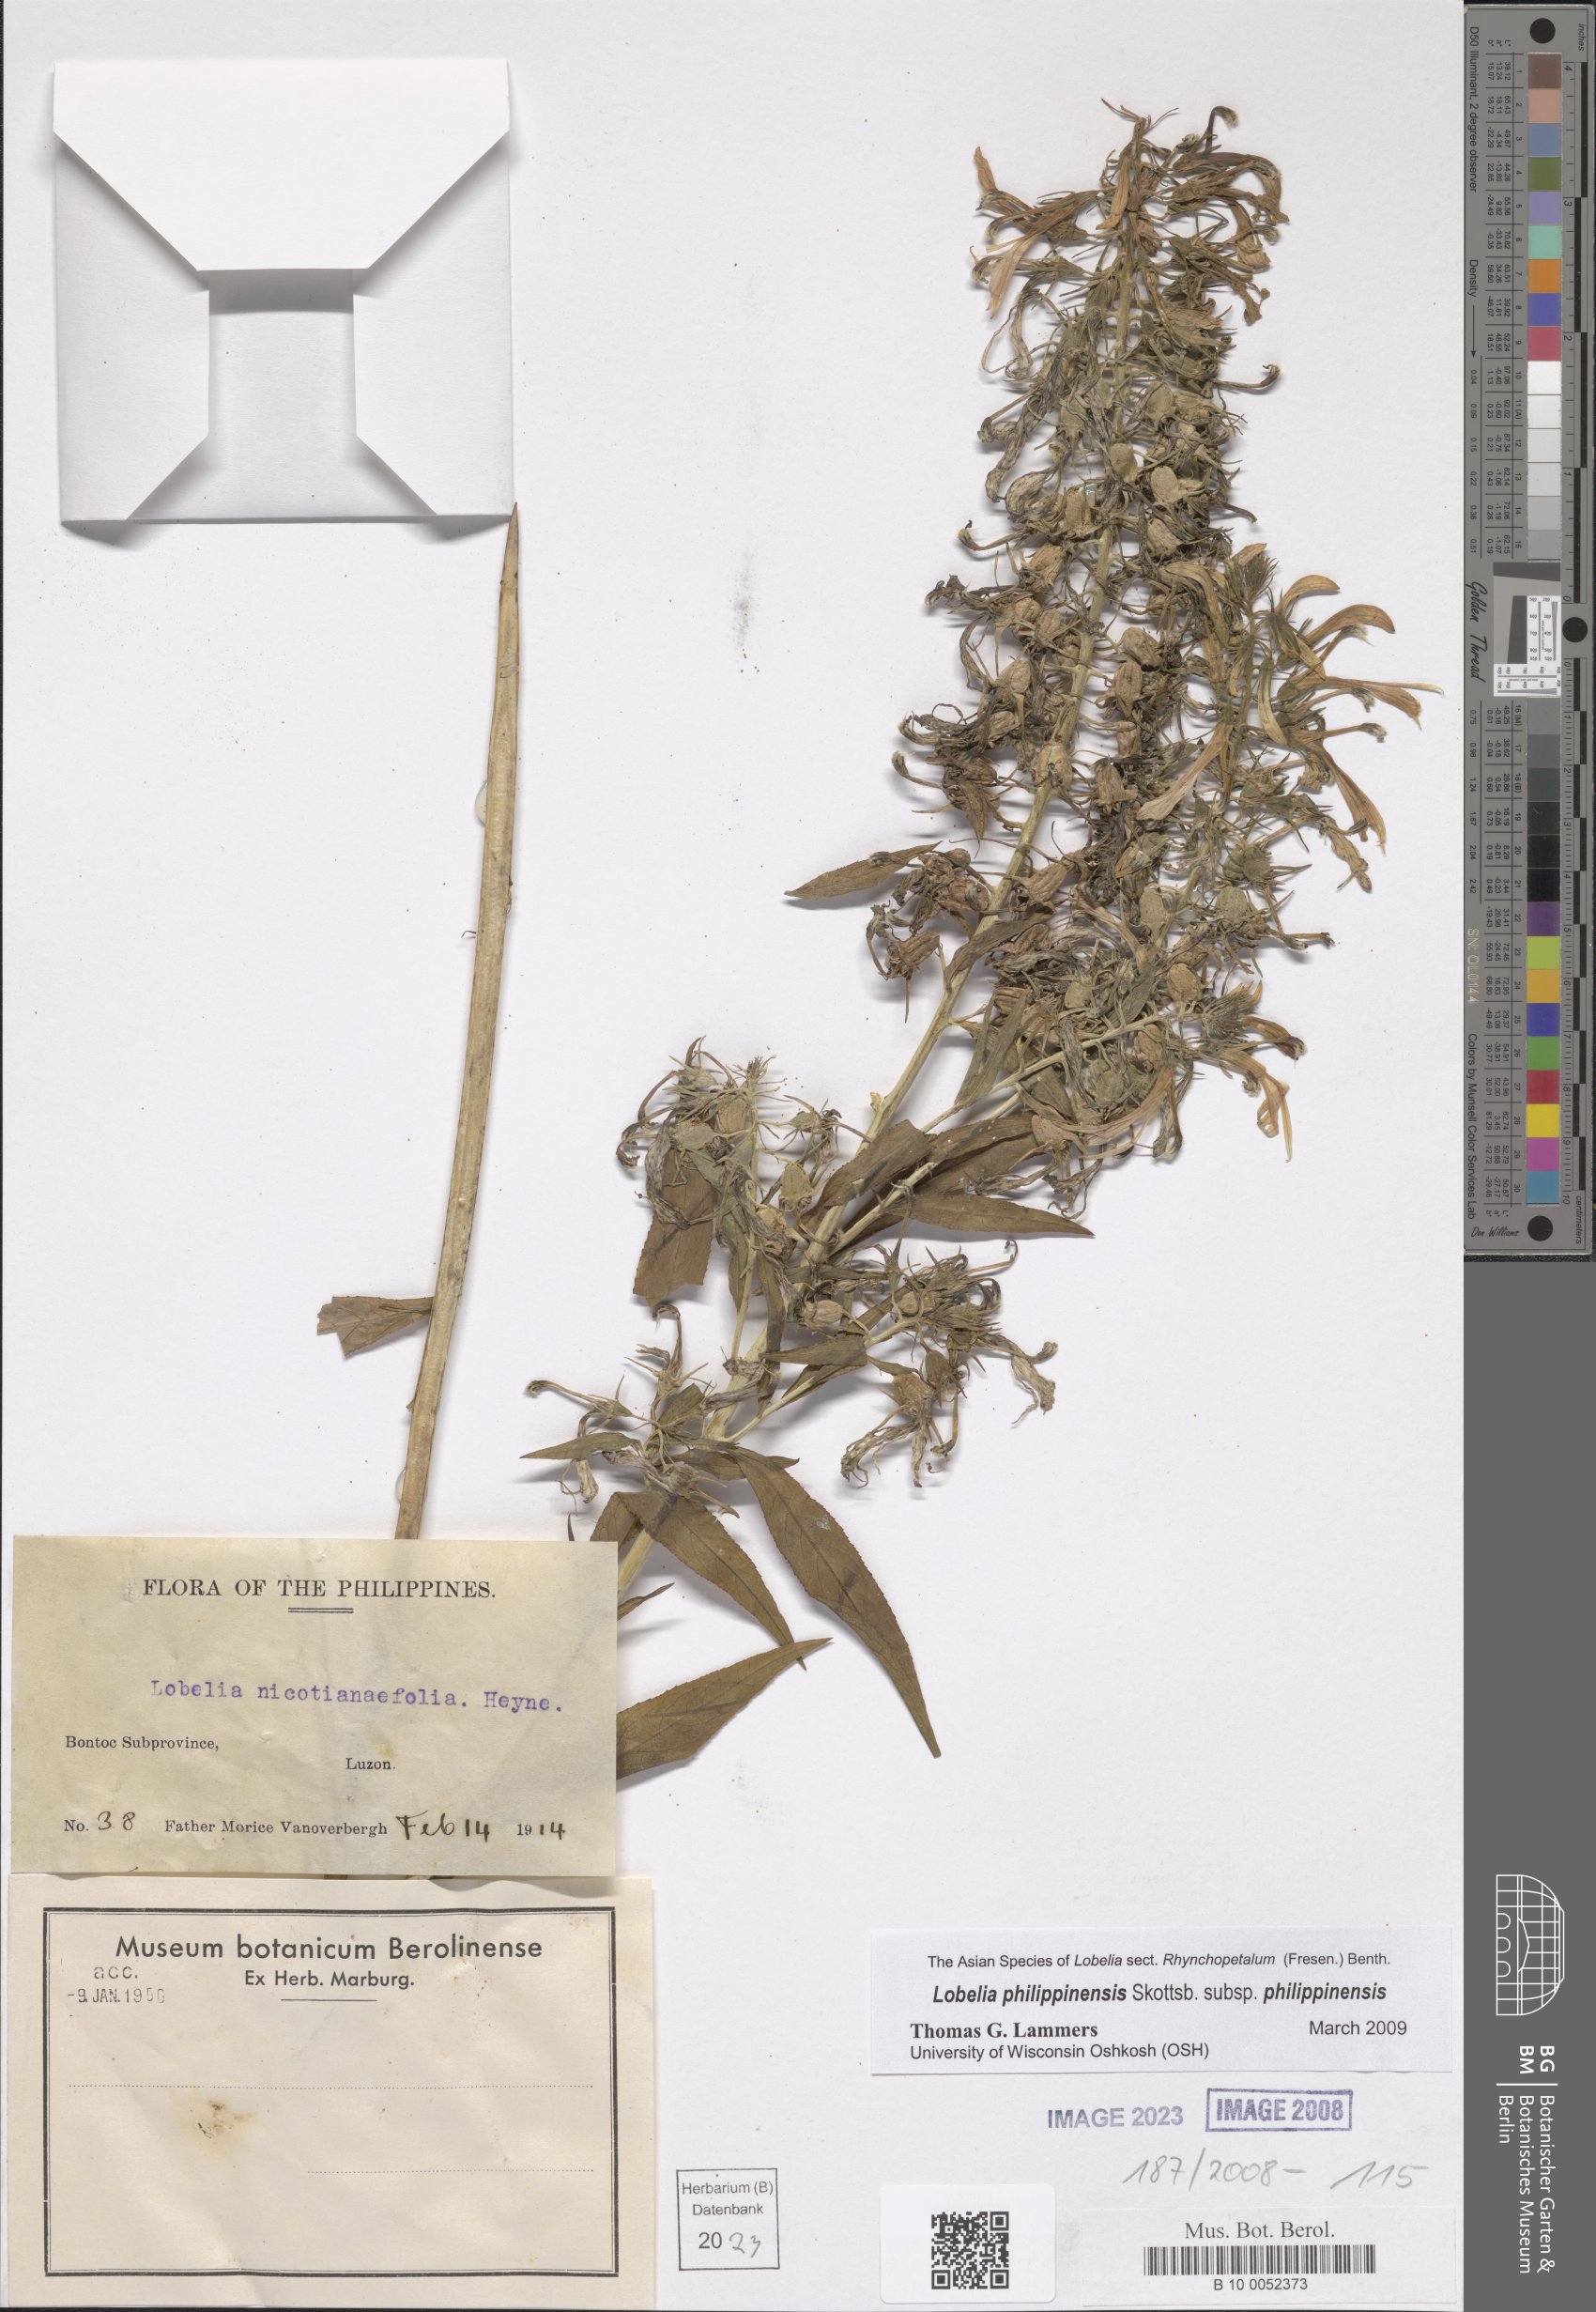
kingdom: Plantae
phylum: Tracheophyta
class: Magnoliopsida
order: Asterales
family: Campanulaceae
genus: Lobelia
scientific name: Lobelia philippinensis
